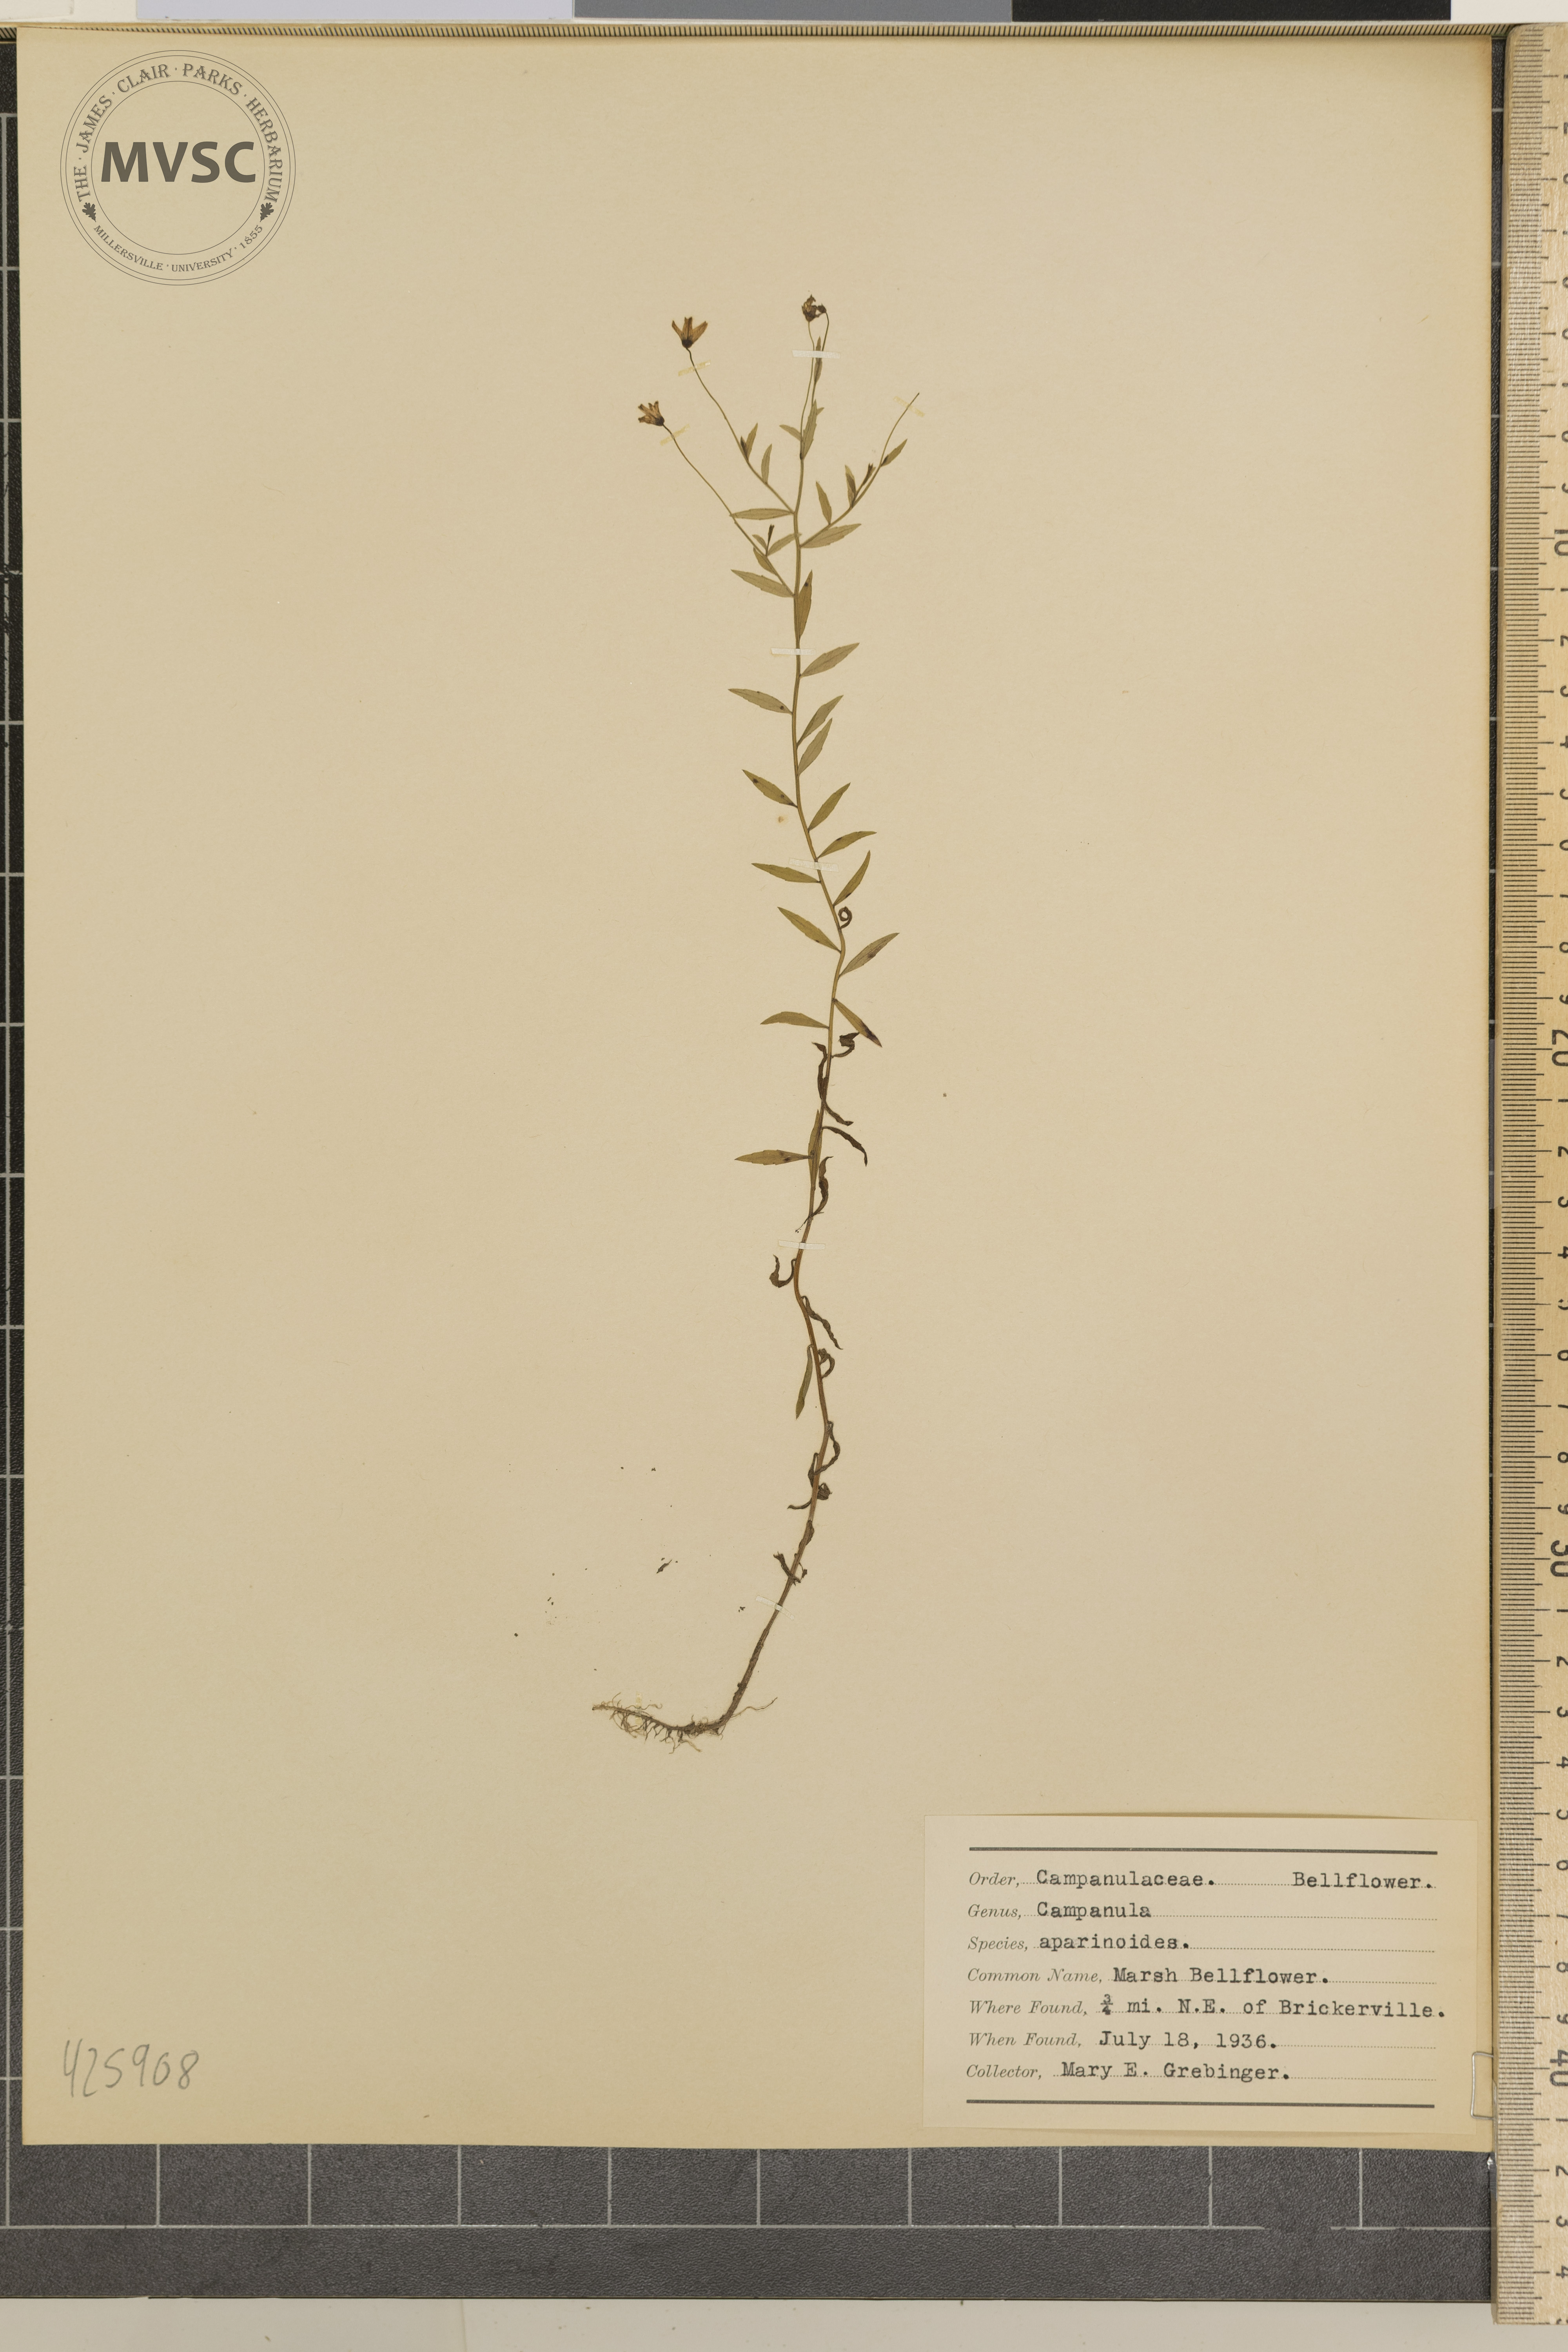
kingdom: Plantae
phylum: Tracheophyta
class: Magnoliopsida
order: Asterales
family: Campanulaceae
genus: Palustricodon
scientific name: Palustricodon aparinoides
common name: Marsh bellflower
